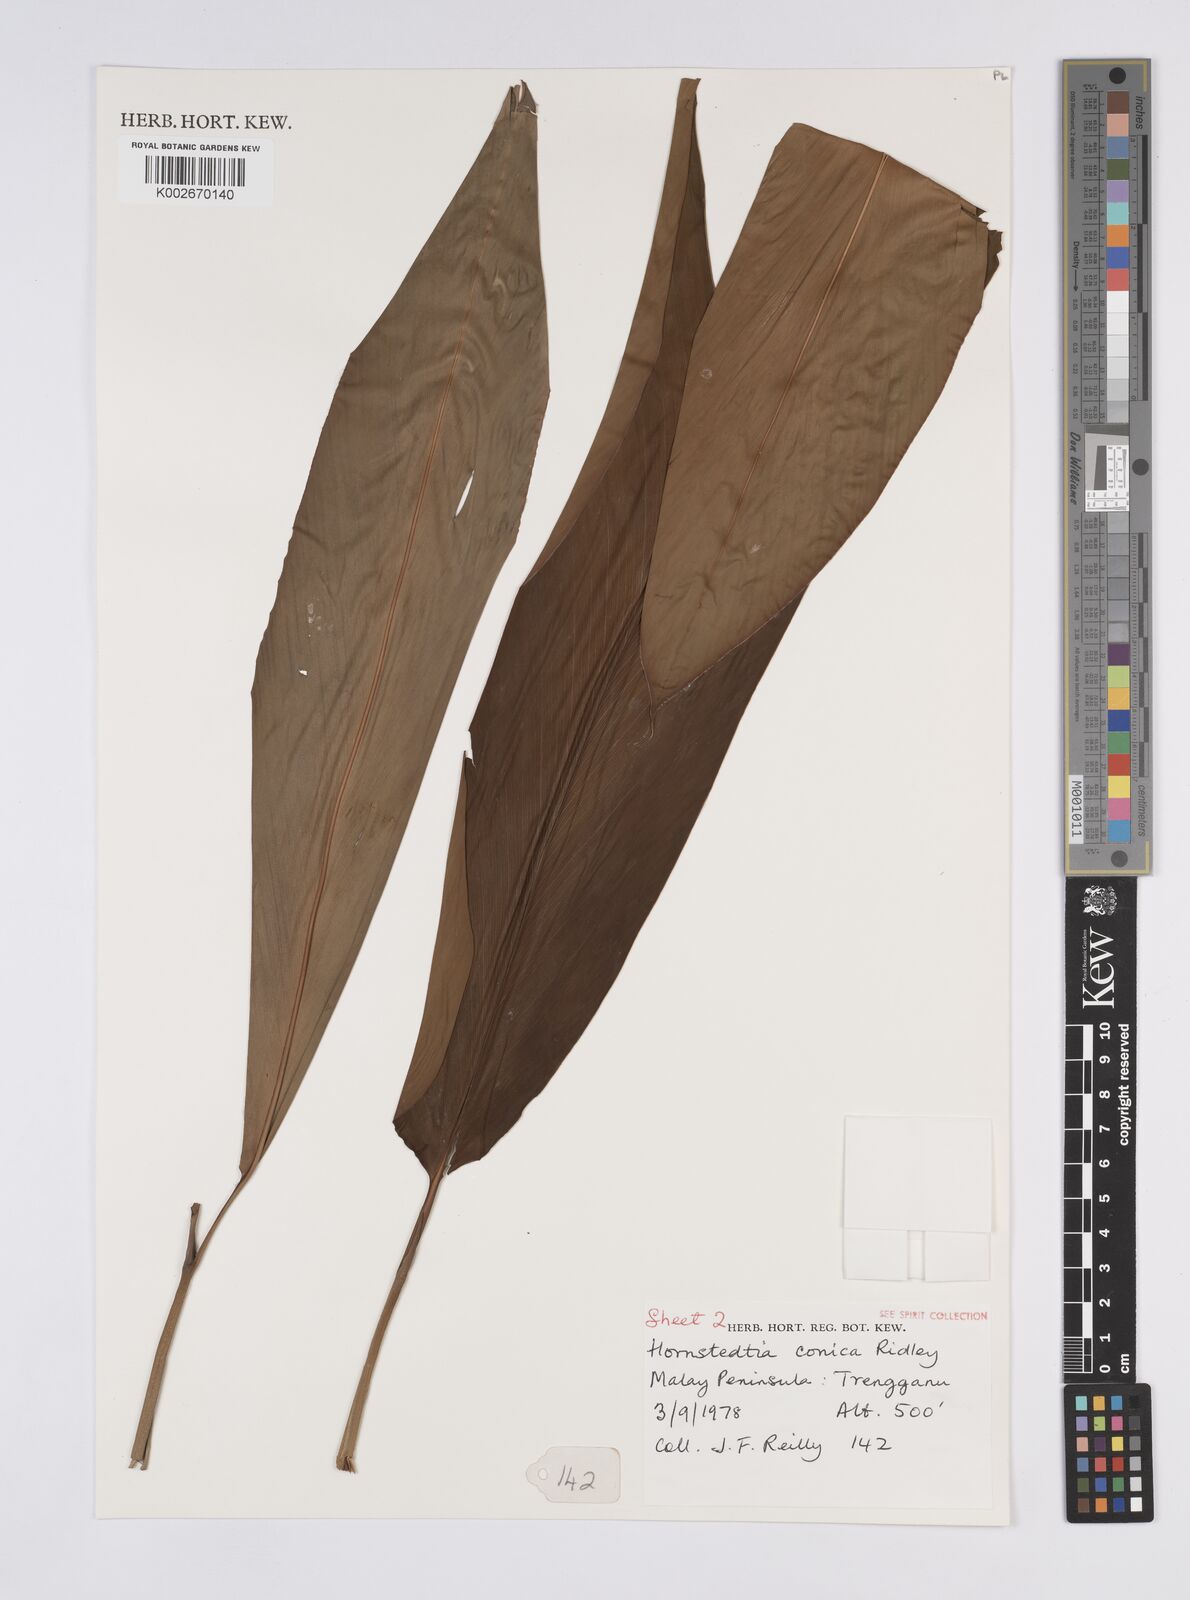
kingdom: Plantae
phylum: Tracheophyta
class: Liliopsida
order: Zingiberales
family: Zingiberaceae
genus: Hornstedtia
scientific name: Hornstedtia conica
